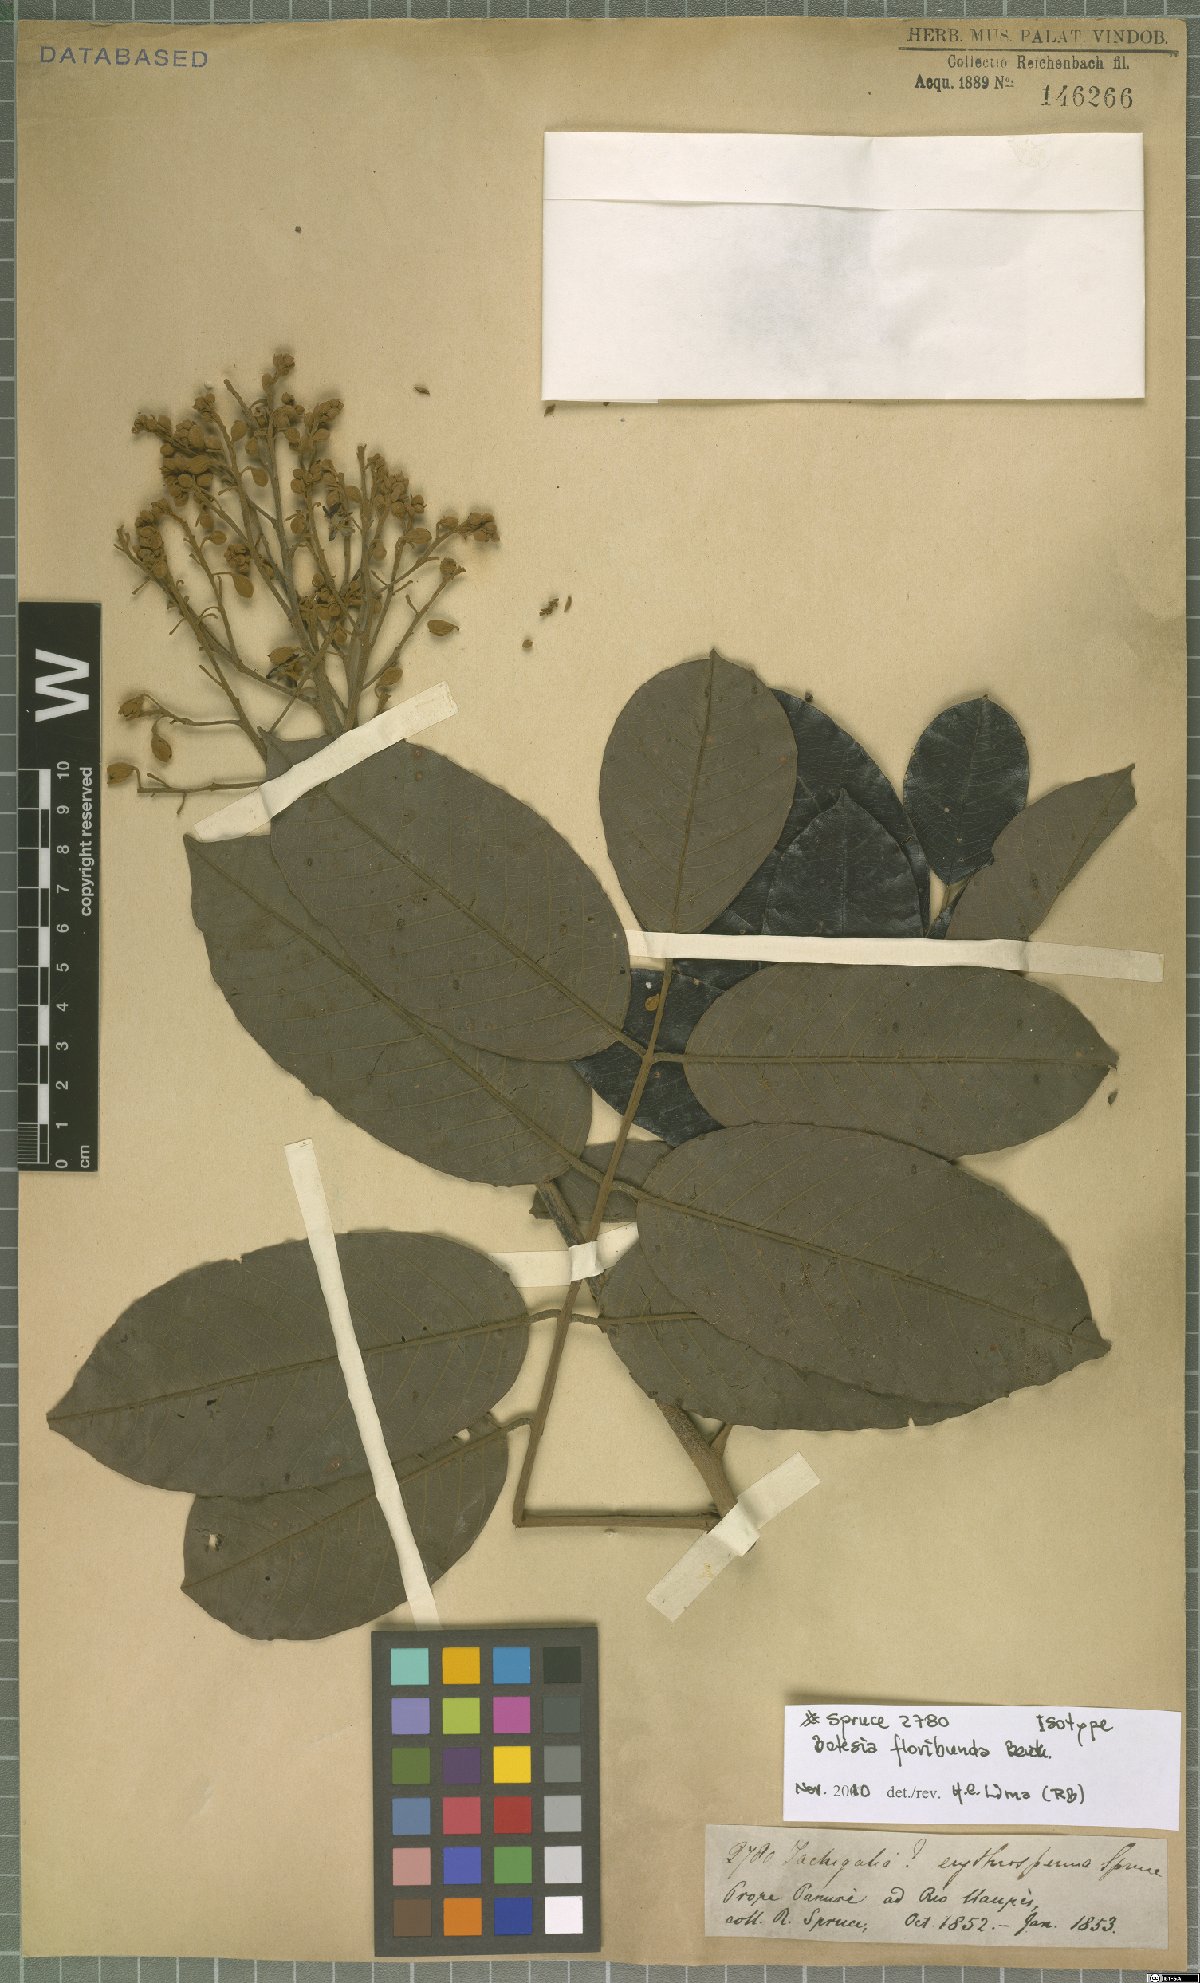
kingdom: Plantae
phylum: Tracheophyta
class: Magnoliopsida
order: Fabales
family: Fabaceae
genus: Batesia
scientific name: Batesia floribunda
